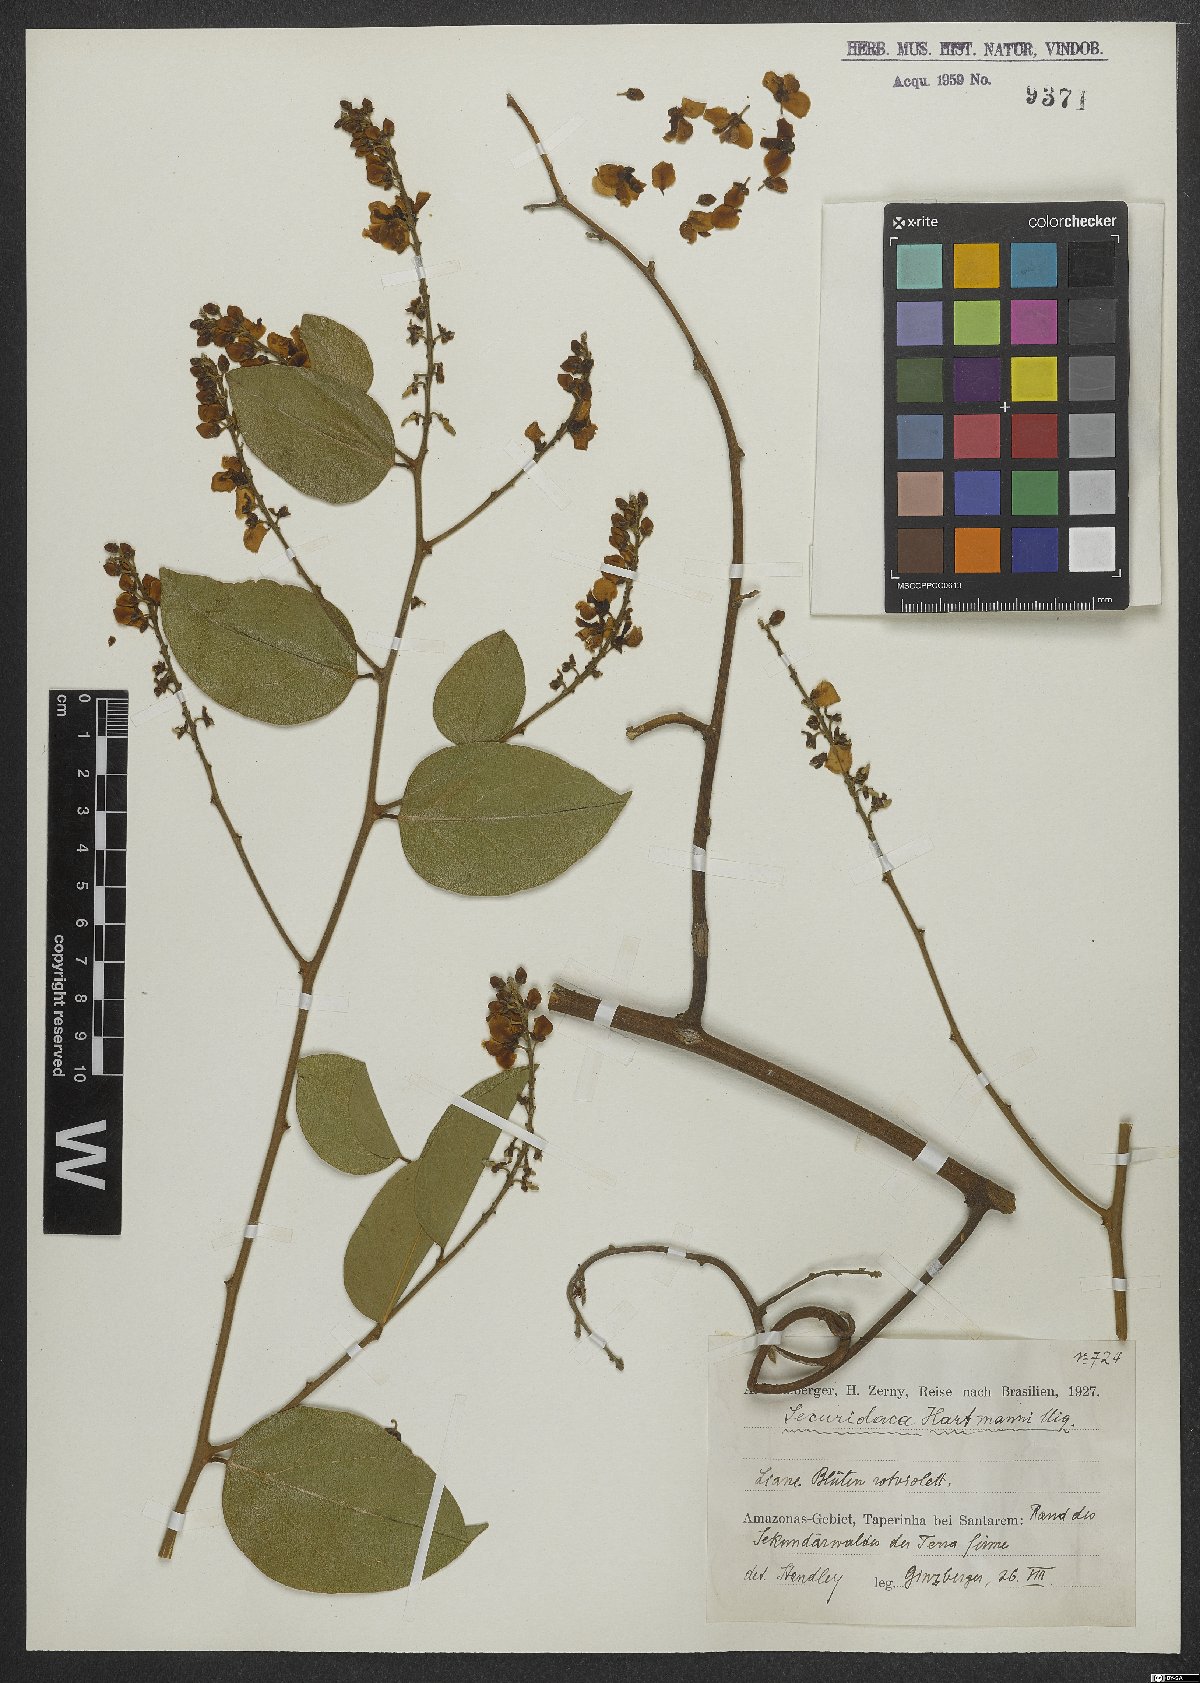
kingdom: Plantae
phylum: Tracheophyta
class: Magnoliopsida
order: Fabales
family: Polygalaceae
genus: Securidaca
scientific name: Securidaca paniculata
